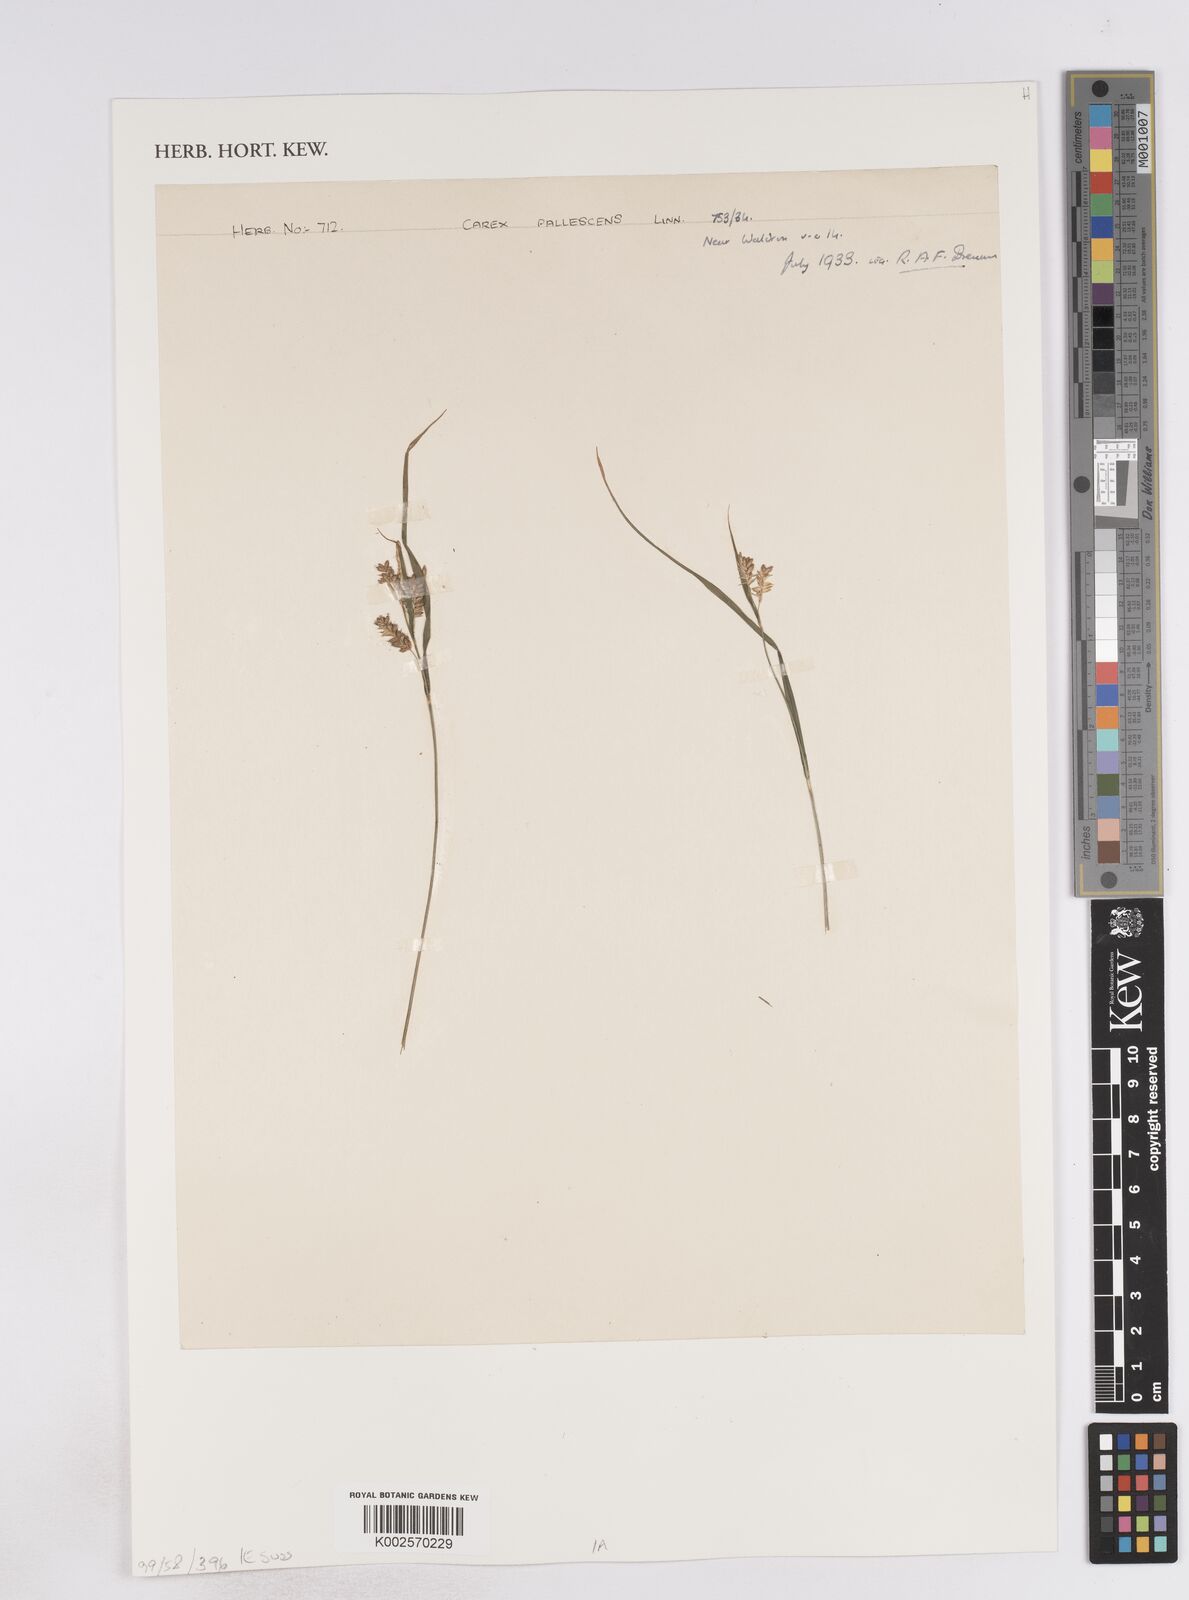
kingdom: Plantae
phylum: Tracheophyta
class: Liliopsida
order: Poales
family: Cyperaceae
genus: Carex
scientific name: Carex pallescens
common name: Pale sedge
